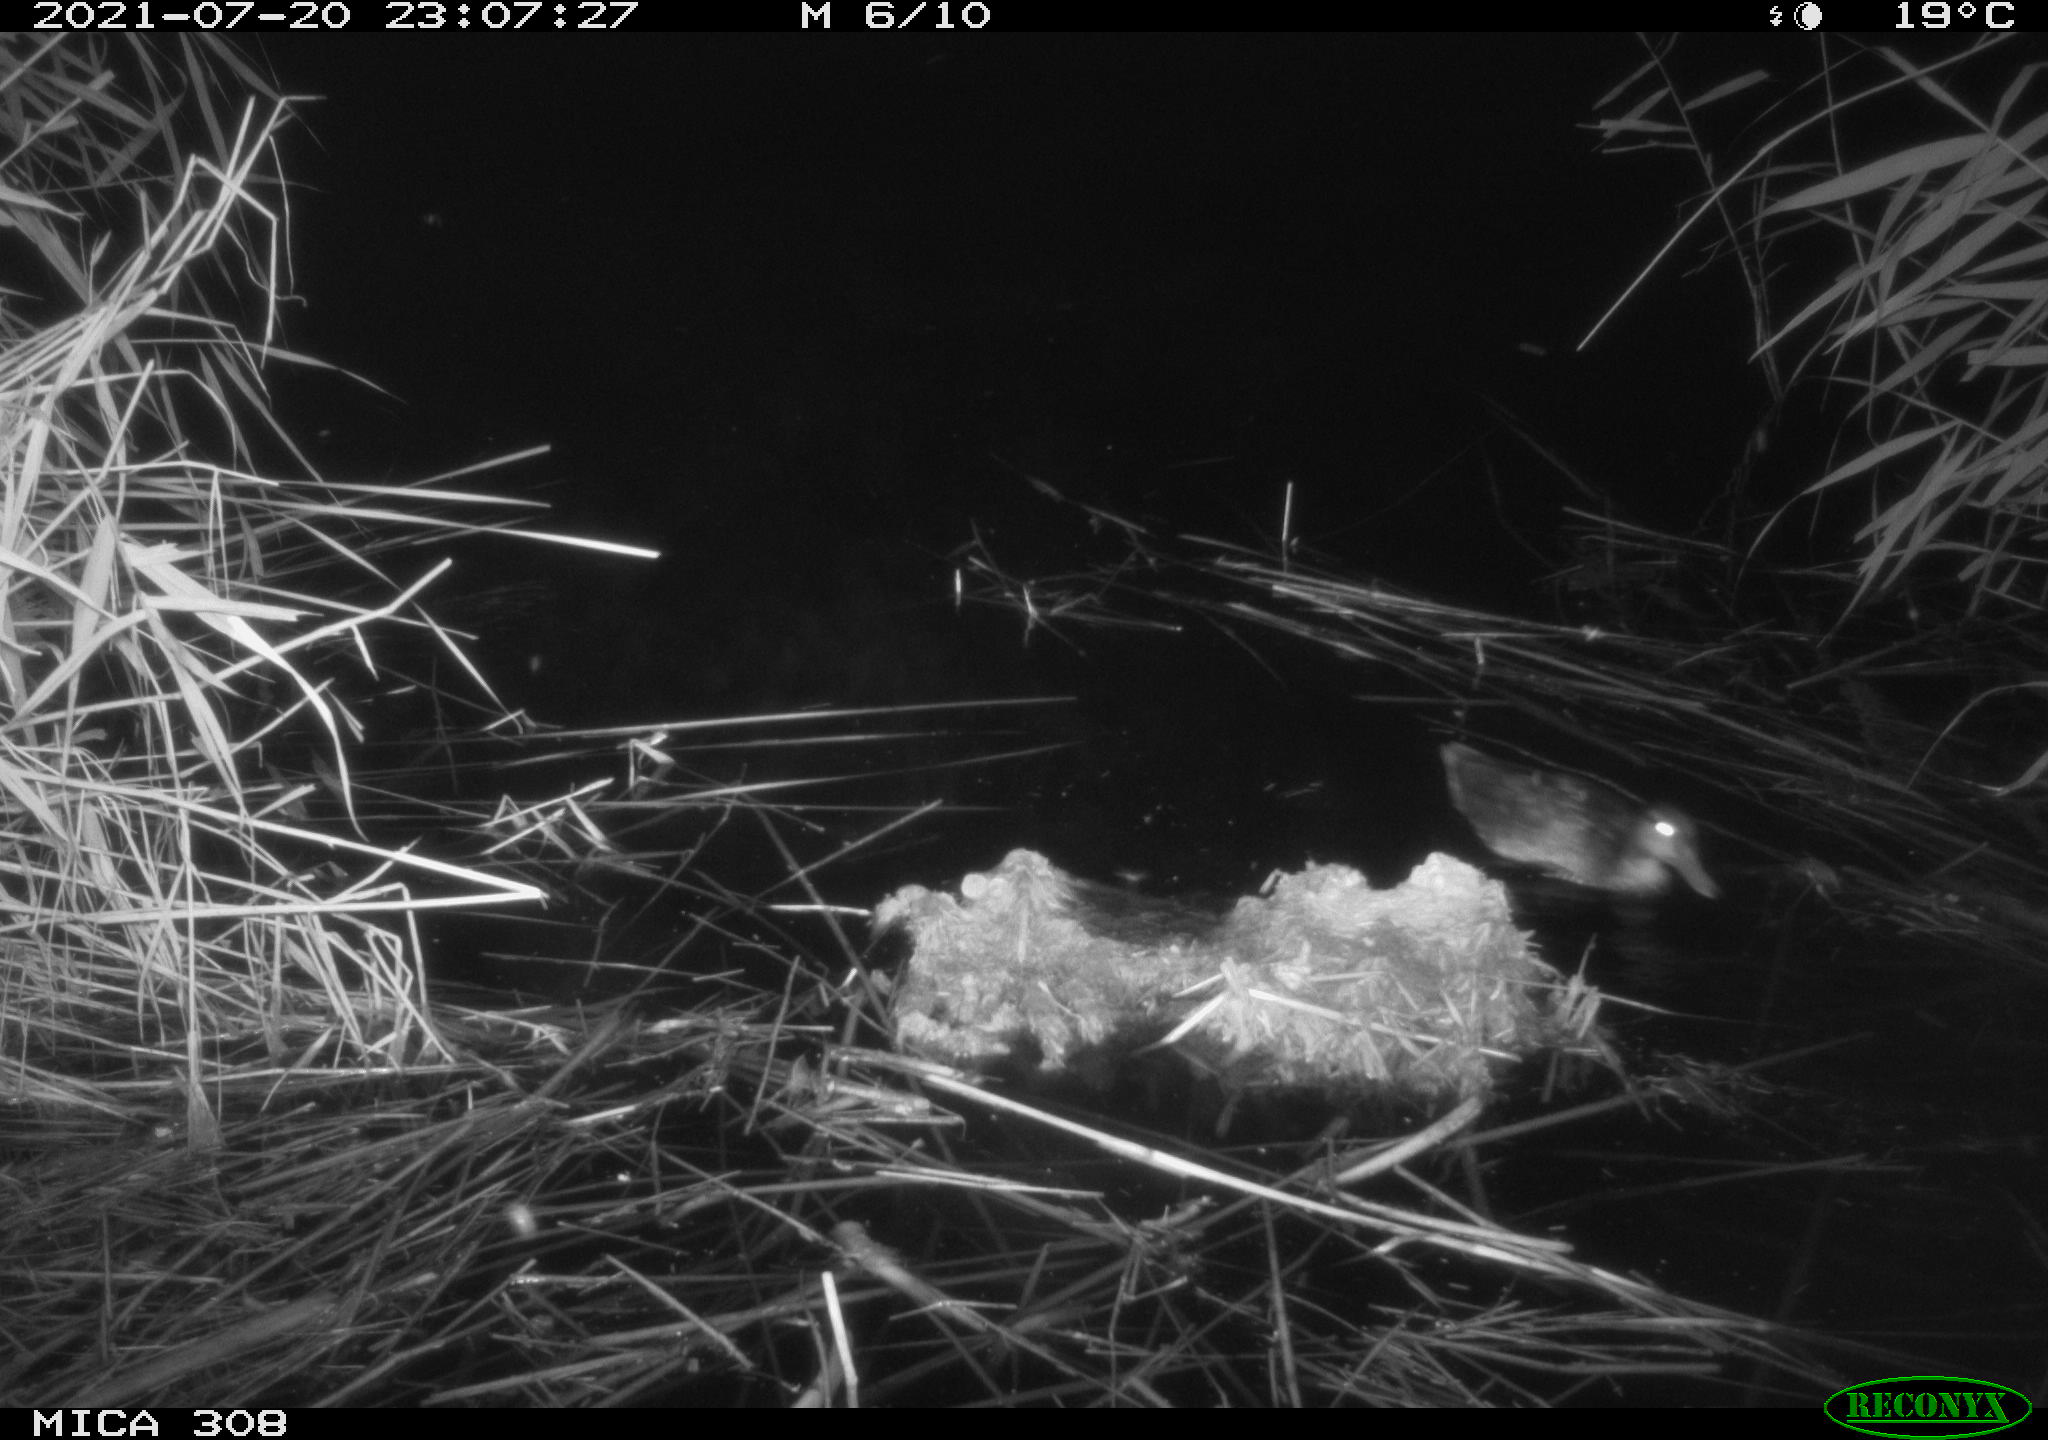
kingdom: Animalia
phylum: Chordata
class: Aves
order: Gruiformes
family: Rallidae
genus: Gallinula
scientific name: Gallinula chloropus
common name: Common moorhen
